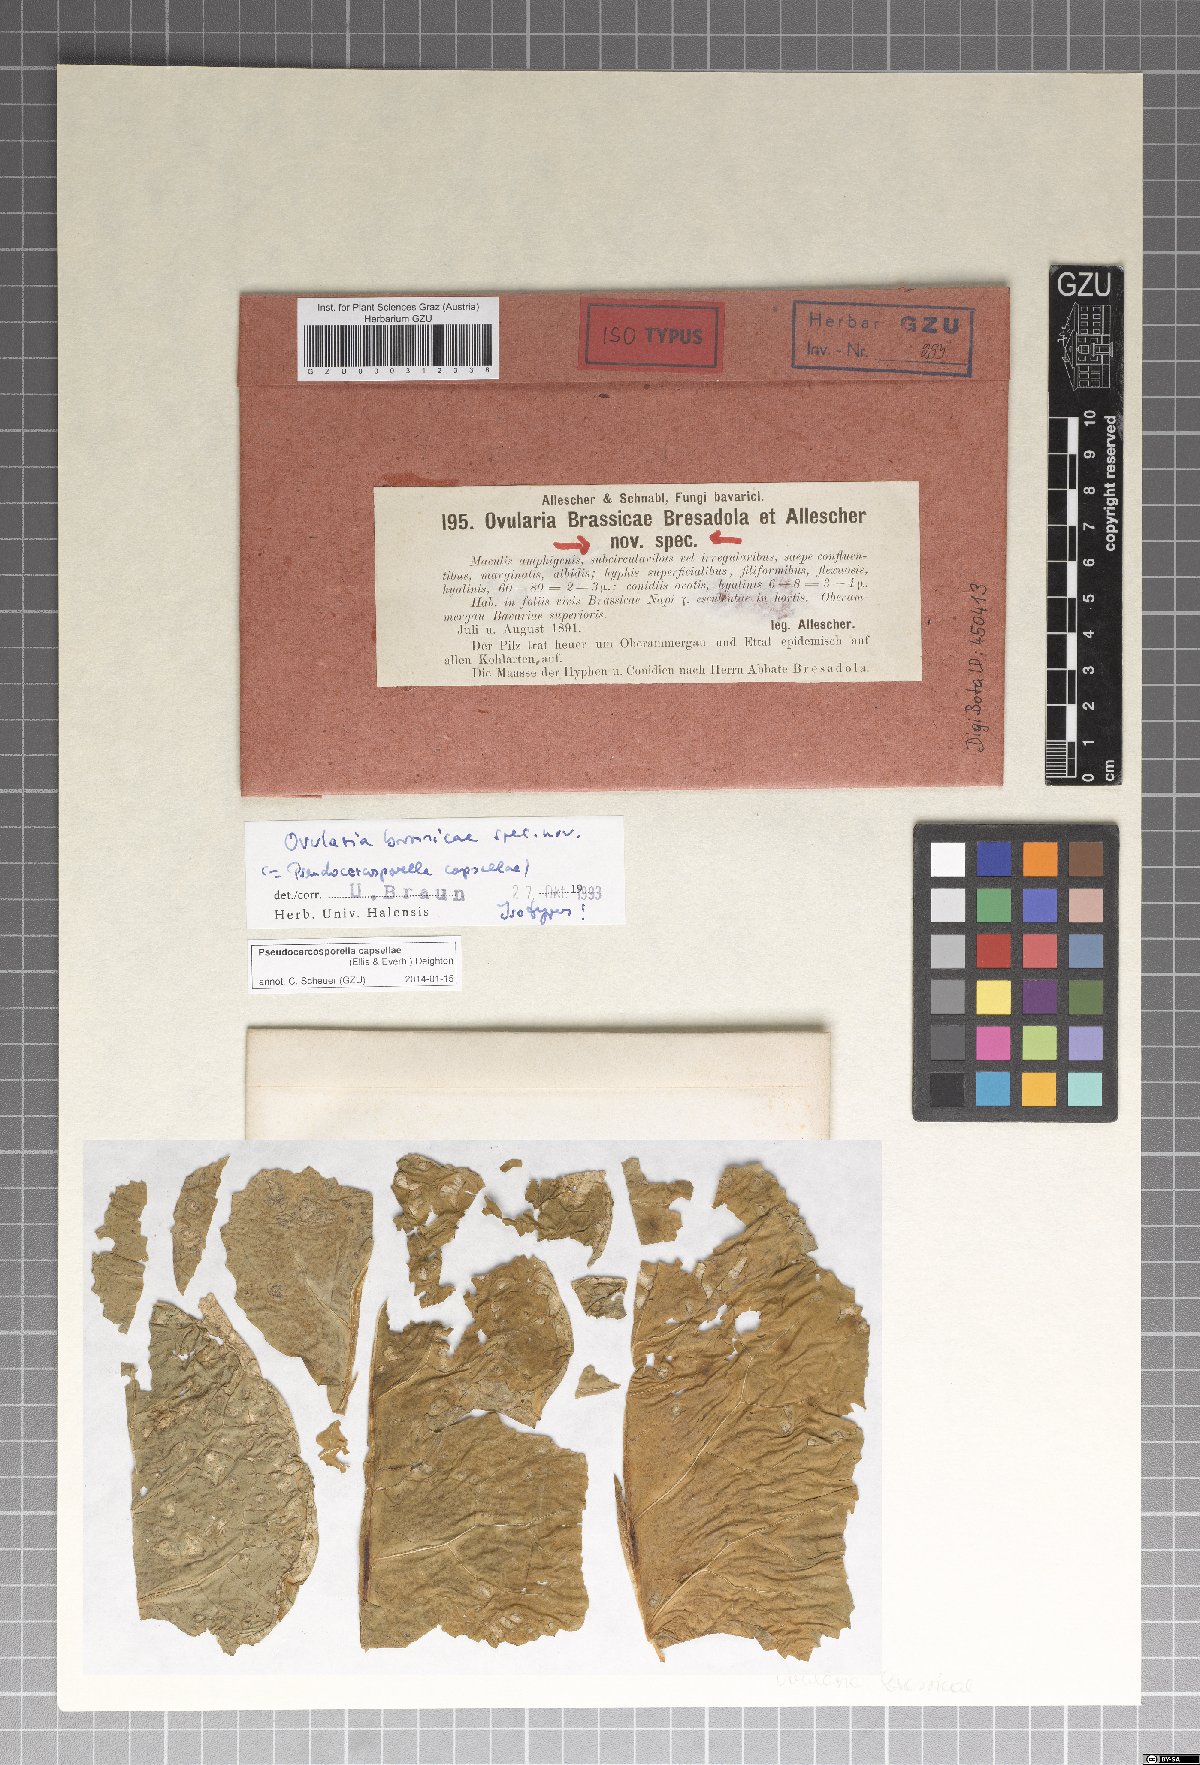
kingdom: Fungi
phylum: Ascomycota
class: Dothideomycetes
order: Mycosphaerellales
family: Mycosphaerellaceae
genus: Neopseudocercosporella
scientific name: Neopseudocercosporella capsellae
